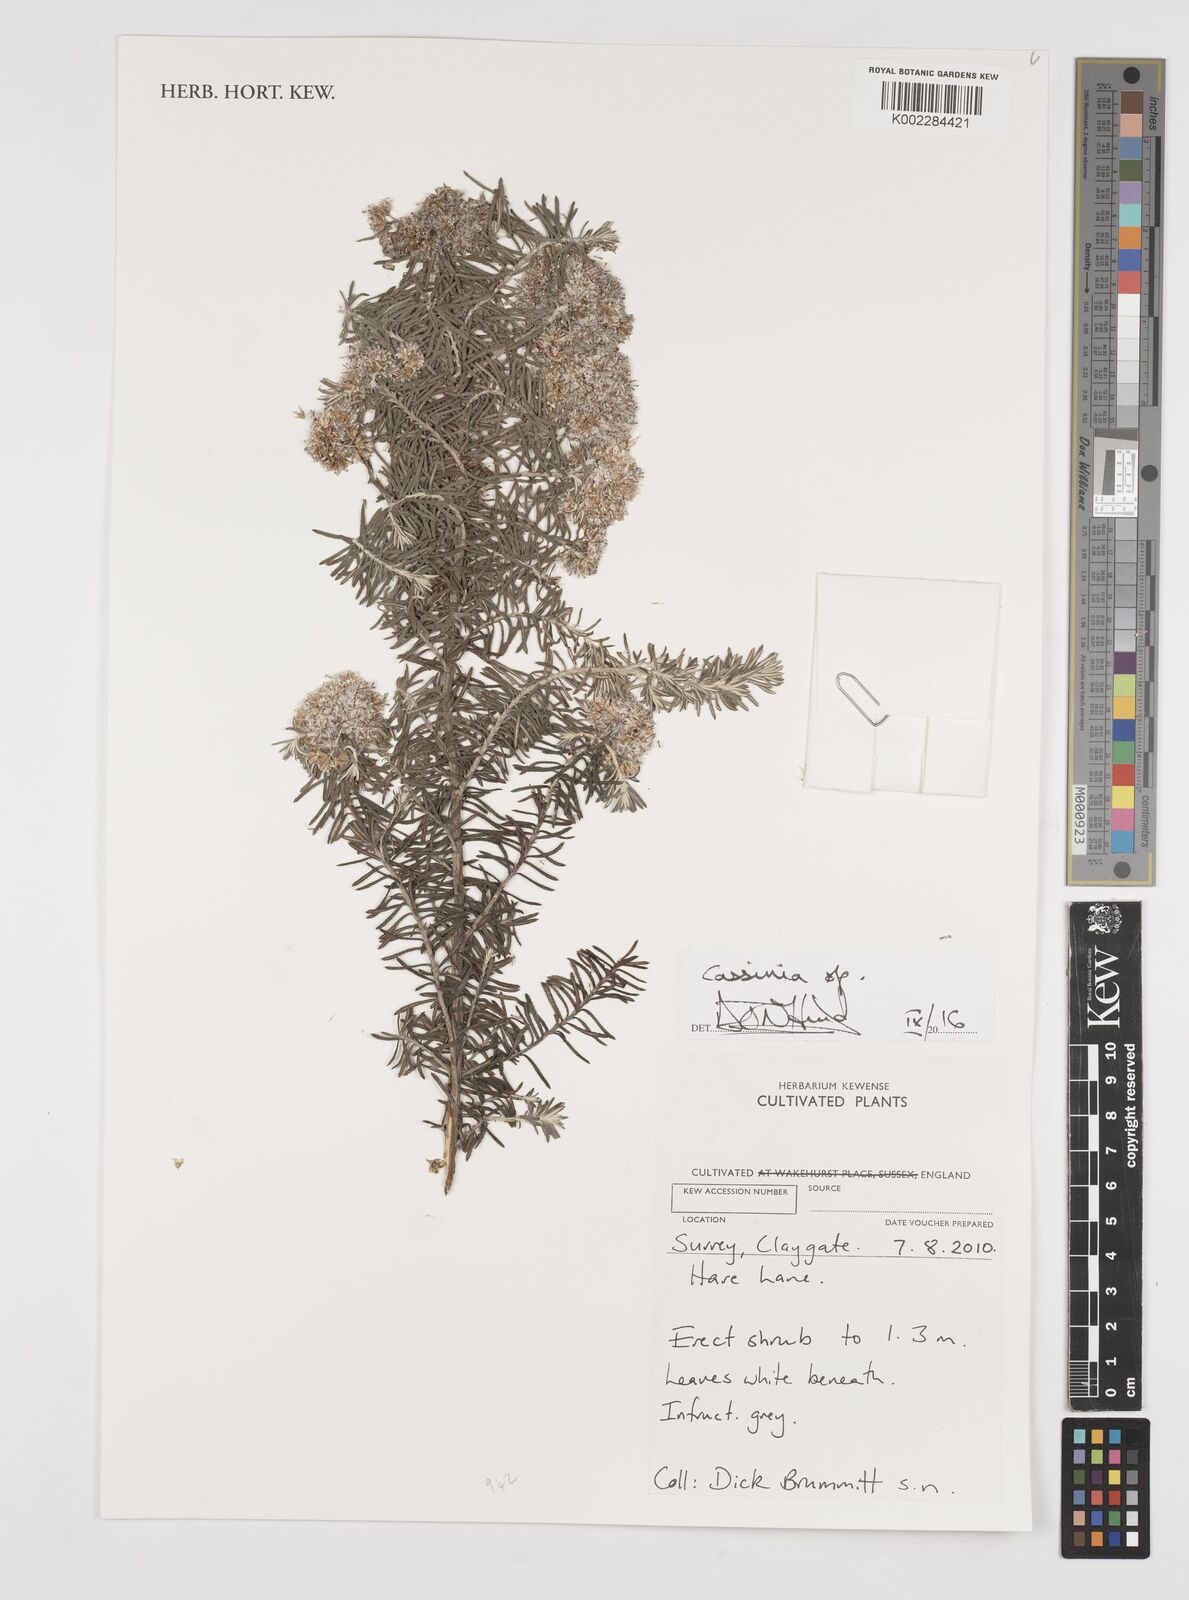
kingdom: Plantae
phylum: Tracheophyta
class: Magnoliopsida
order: Asterales
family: Asteraceae
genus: Cassinia
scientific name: Cassinia
